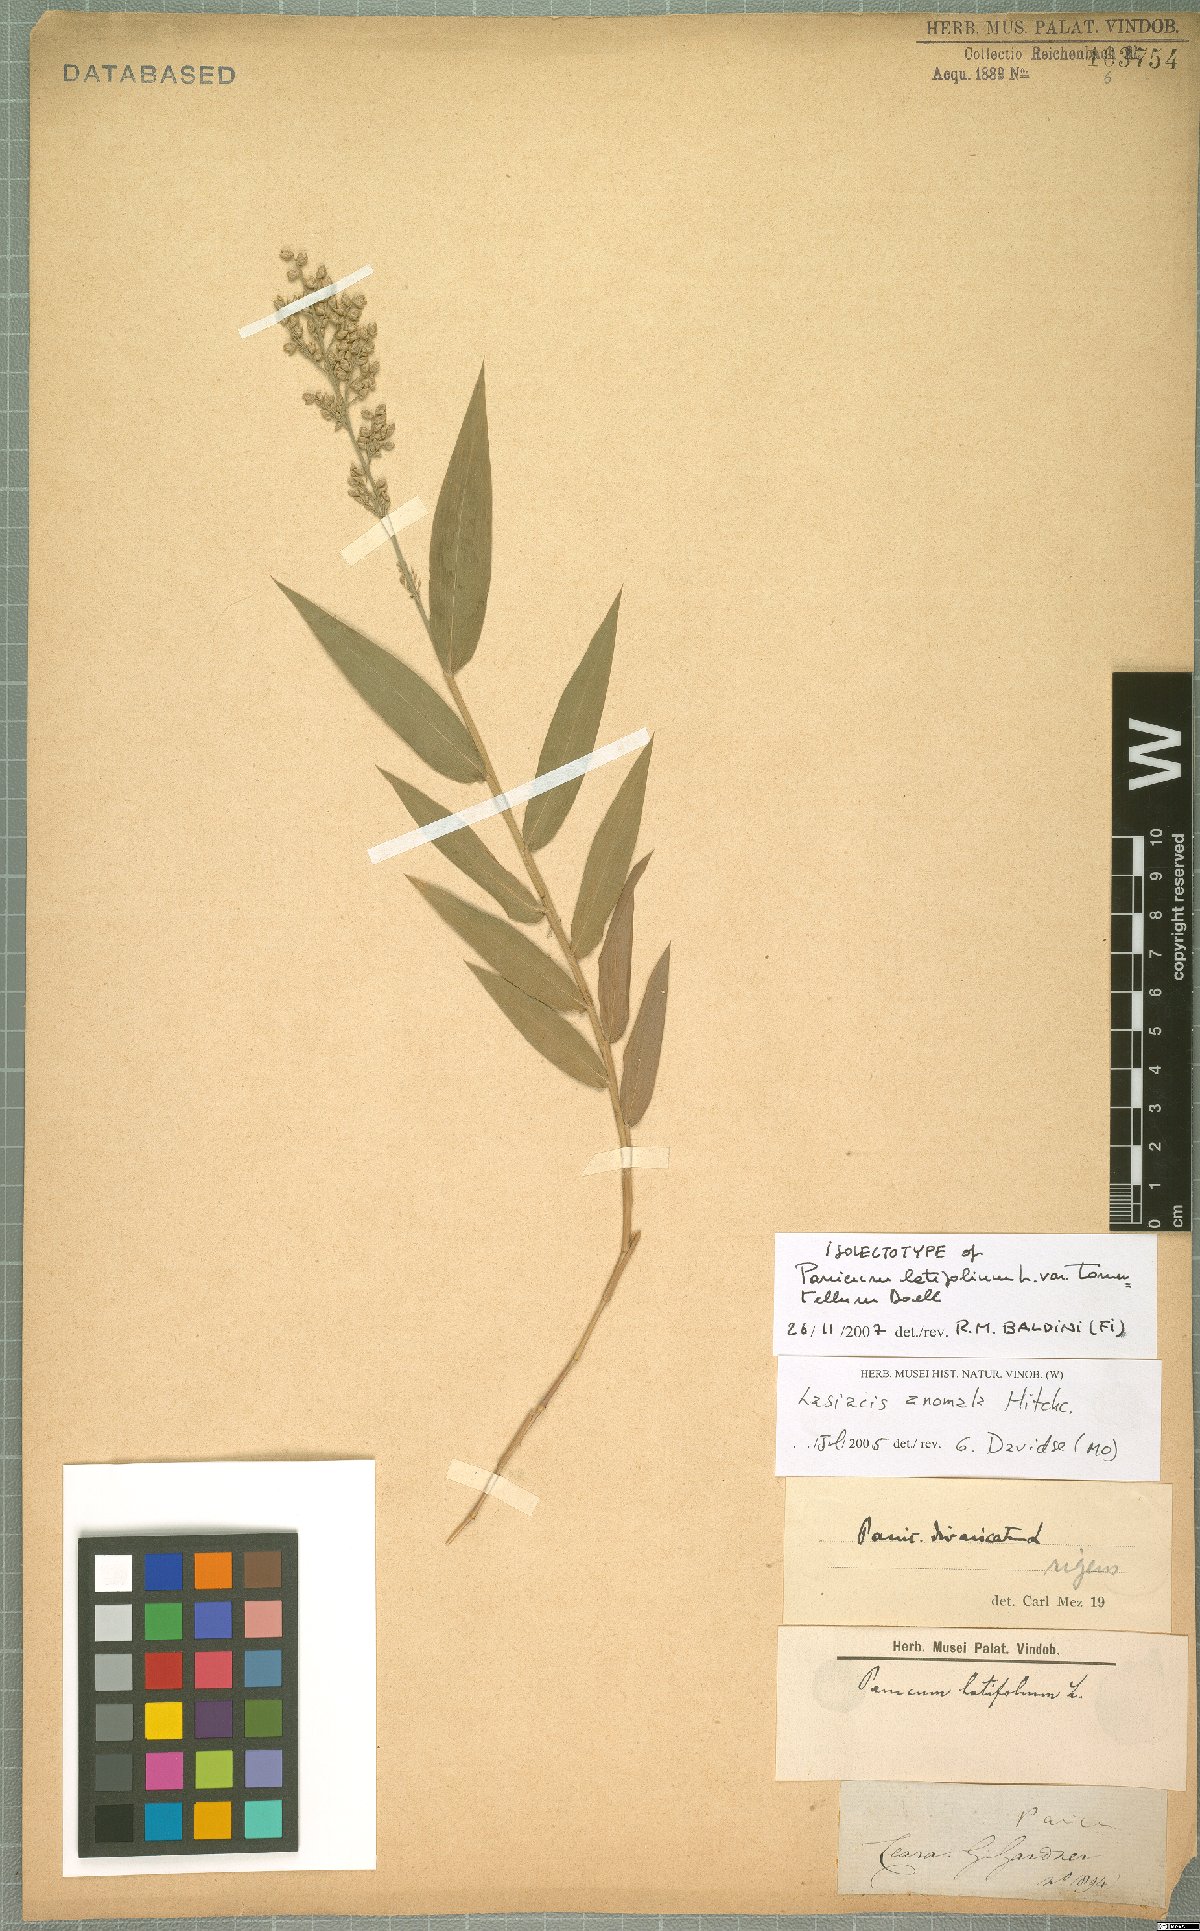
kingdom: Plantae
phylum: Tracheophyta
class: Liliopsida
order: Poales
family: Poaceae
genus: Lasiacis
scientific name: Lasiacis anomala
